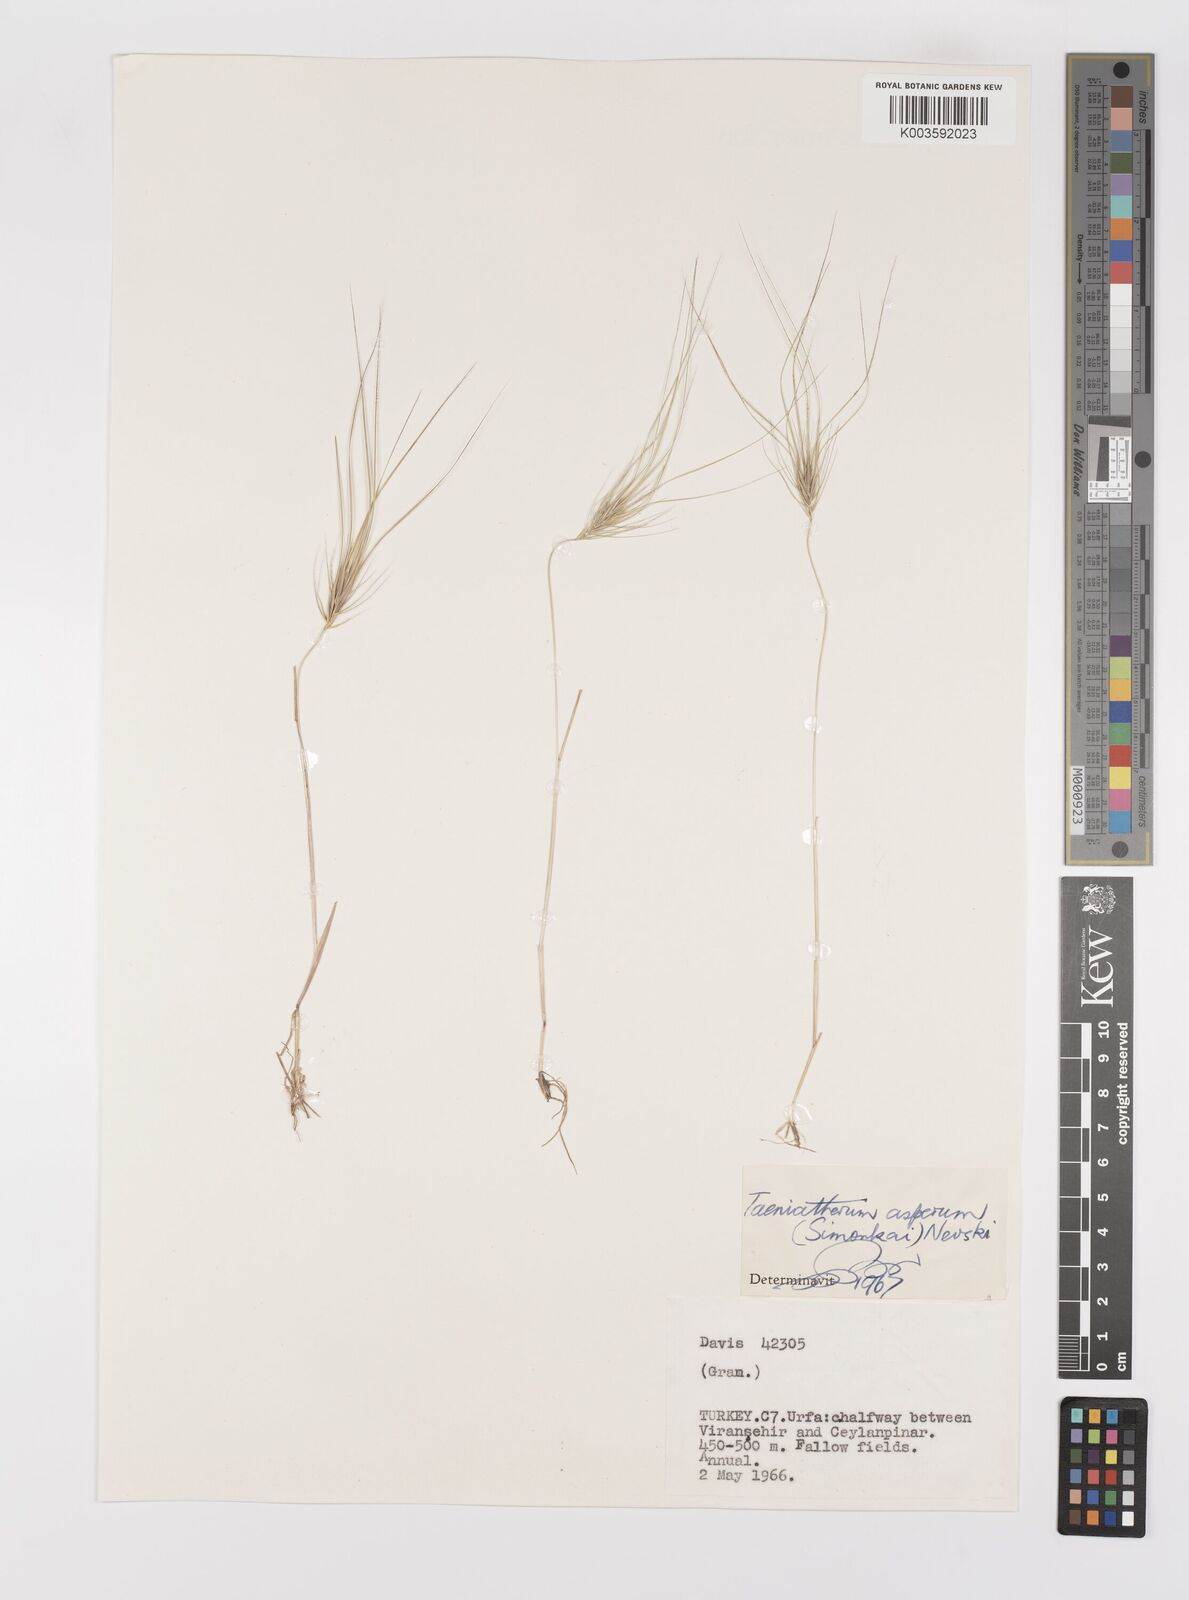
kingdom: Plantae
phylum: Tracheophyta
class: Liliopsida
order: Poales
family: Poaceae
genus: Taeniatherum
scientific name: Taeniatherum caput-medusae
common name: Medusahead
